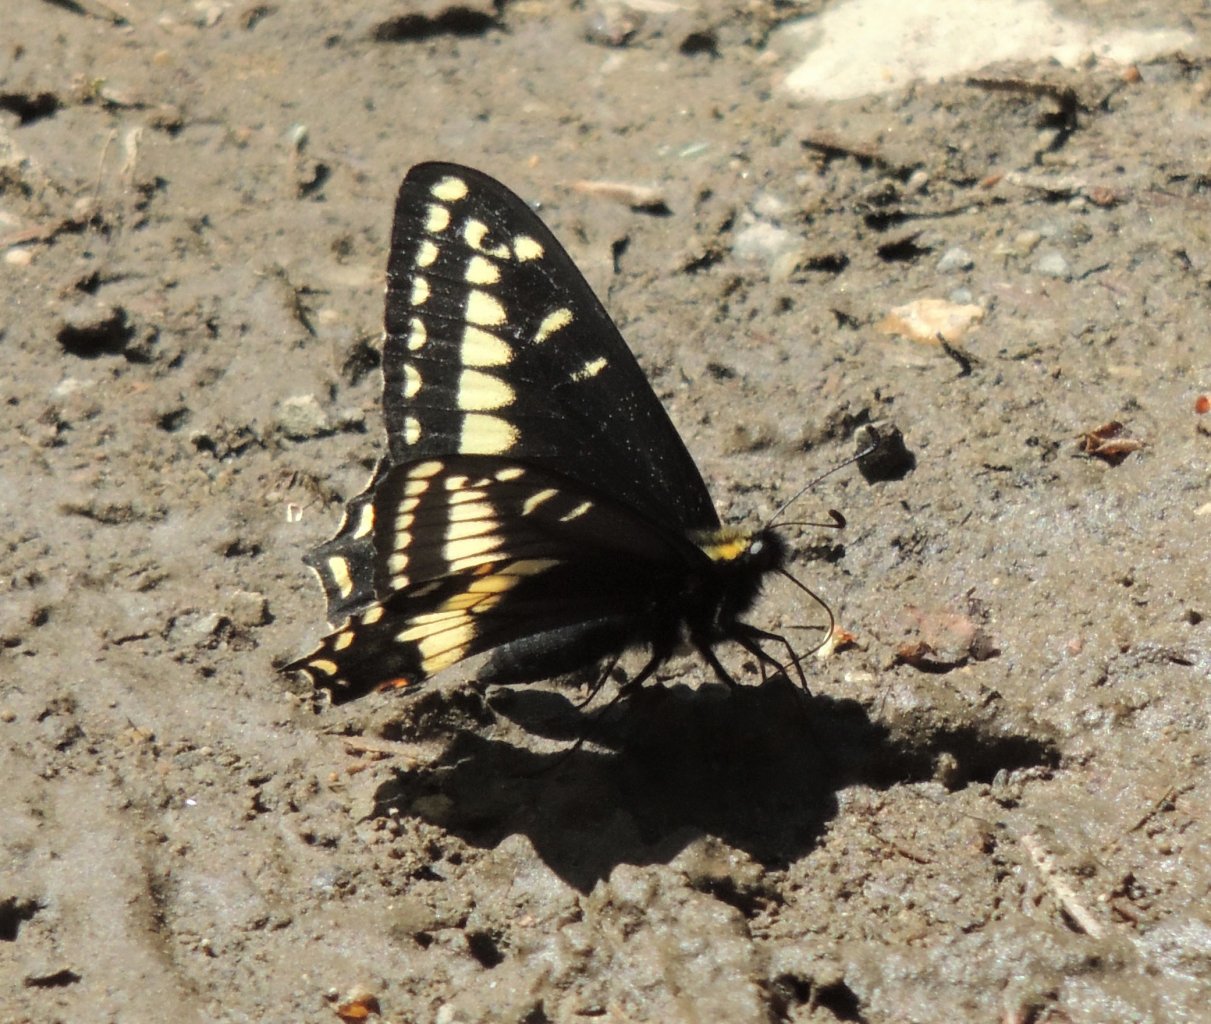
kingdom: Animalia
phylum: Arthropoda
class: Insecta
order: Lepidoptera
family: Papilionidae
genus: Papilio
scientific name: Papilio zelicaon
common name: Anise Swallowtail
